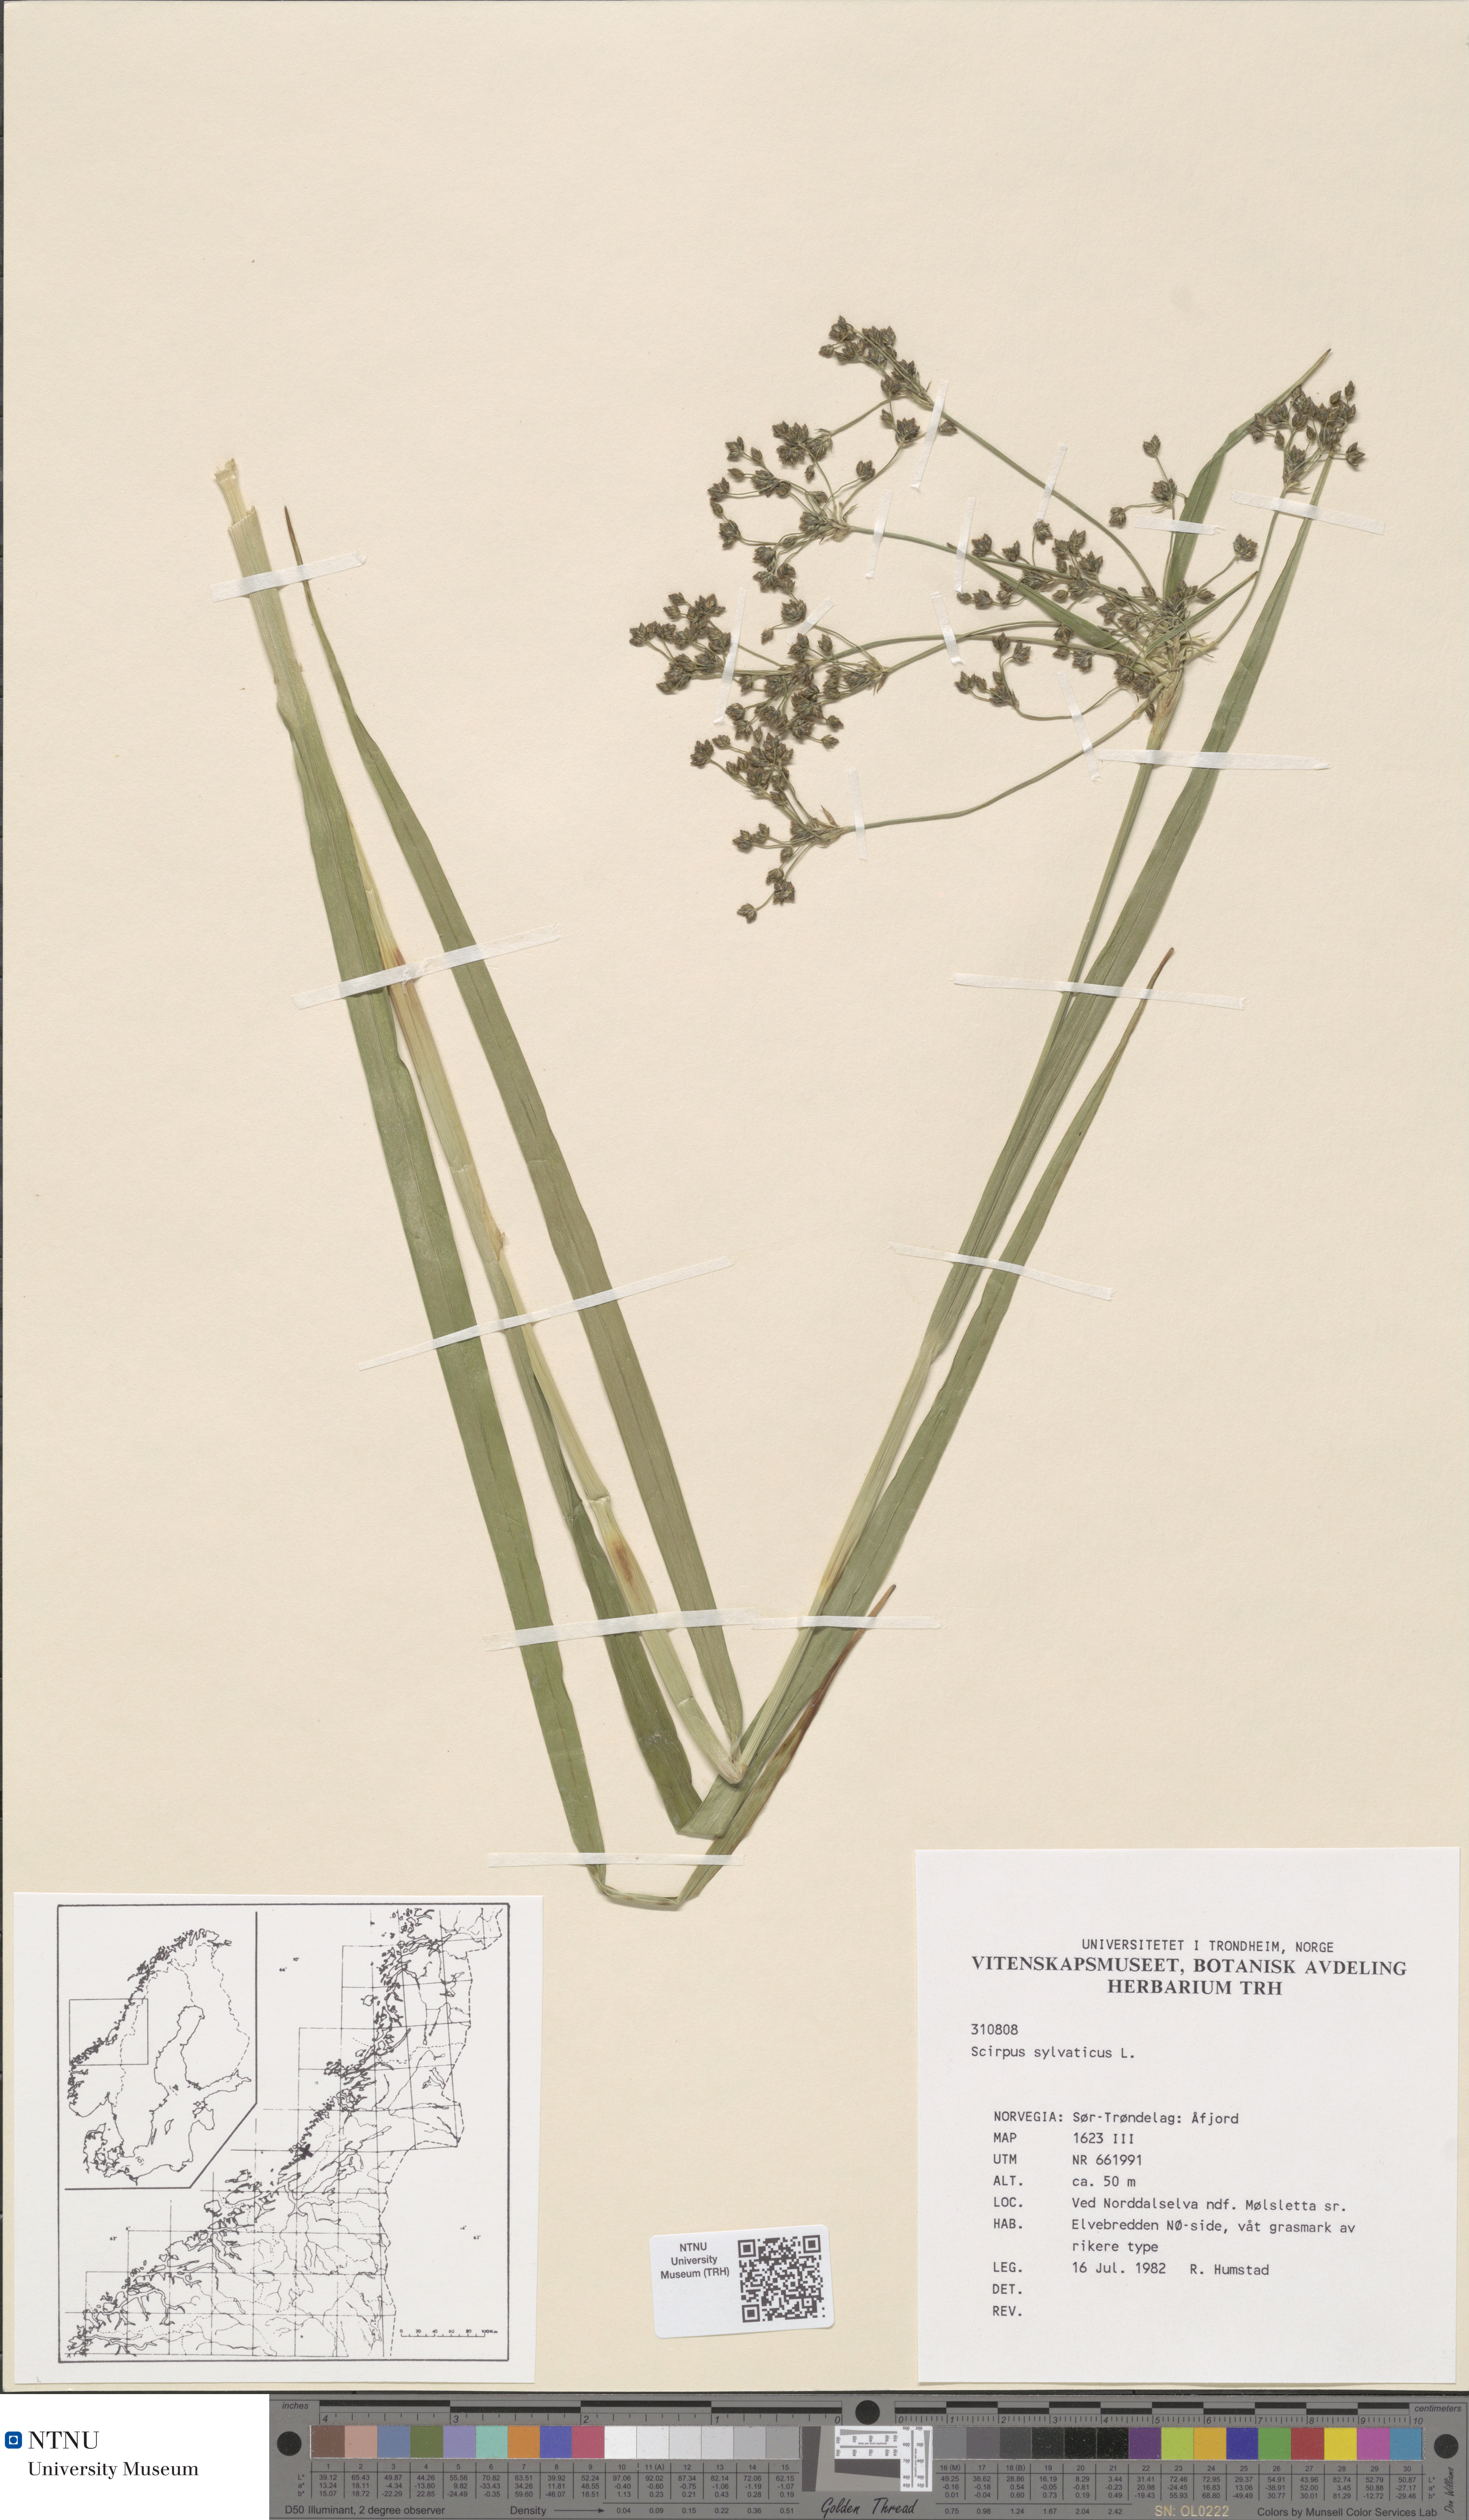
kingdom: Plantae
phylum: Tracheophyta
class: Liliopsida
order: Poales
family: Cyperaceae
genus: Scirpus
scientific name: Scirpus sylvaticus
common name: Wood club-rush
